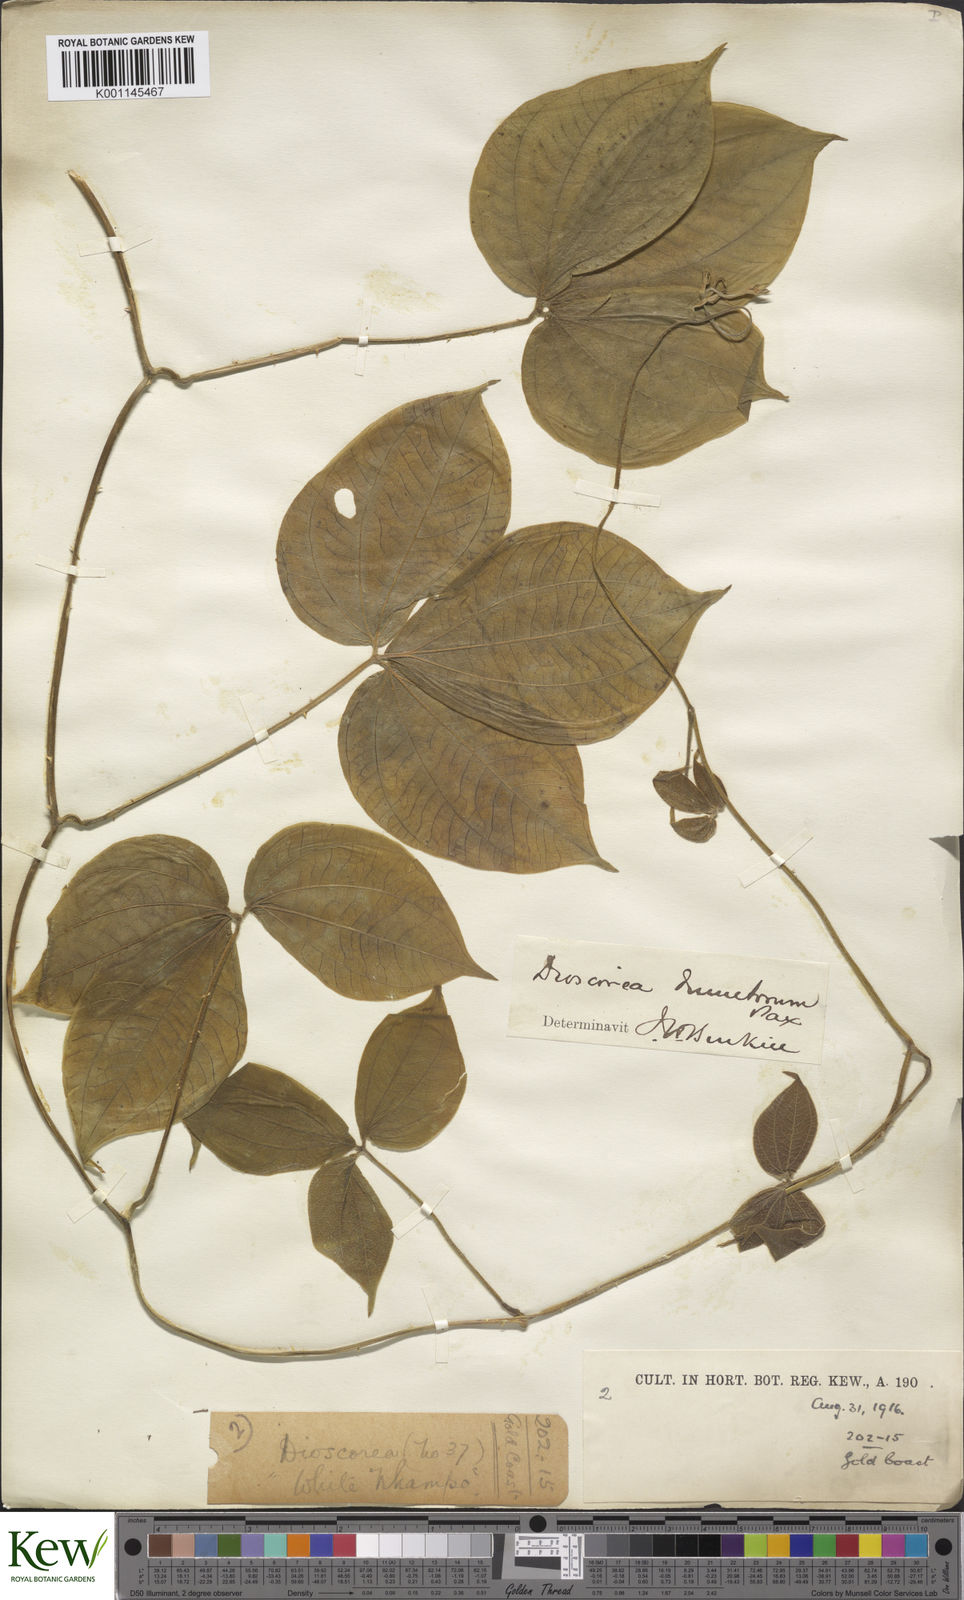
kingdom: Plantae
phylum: Tracheophyta
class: Liliopsida
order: Dioscoreales
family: Dioscoreaceae
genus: Dioscorea
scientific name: Dioscorea dumetorum
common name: African bitter yam
